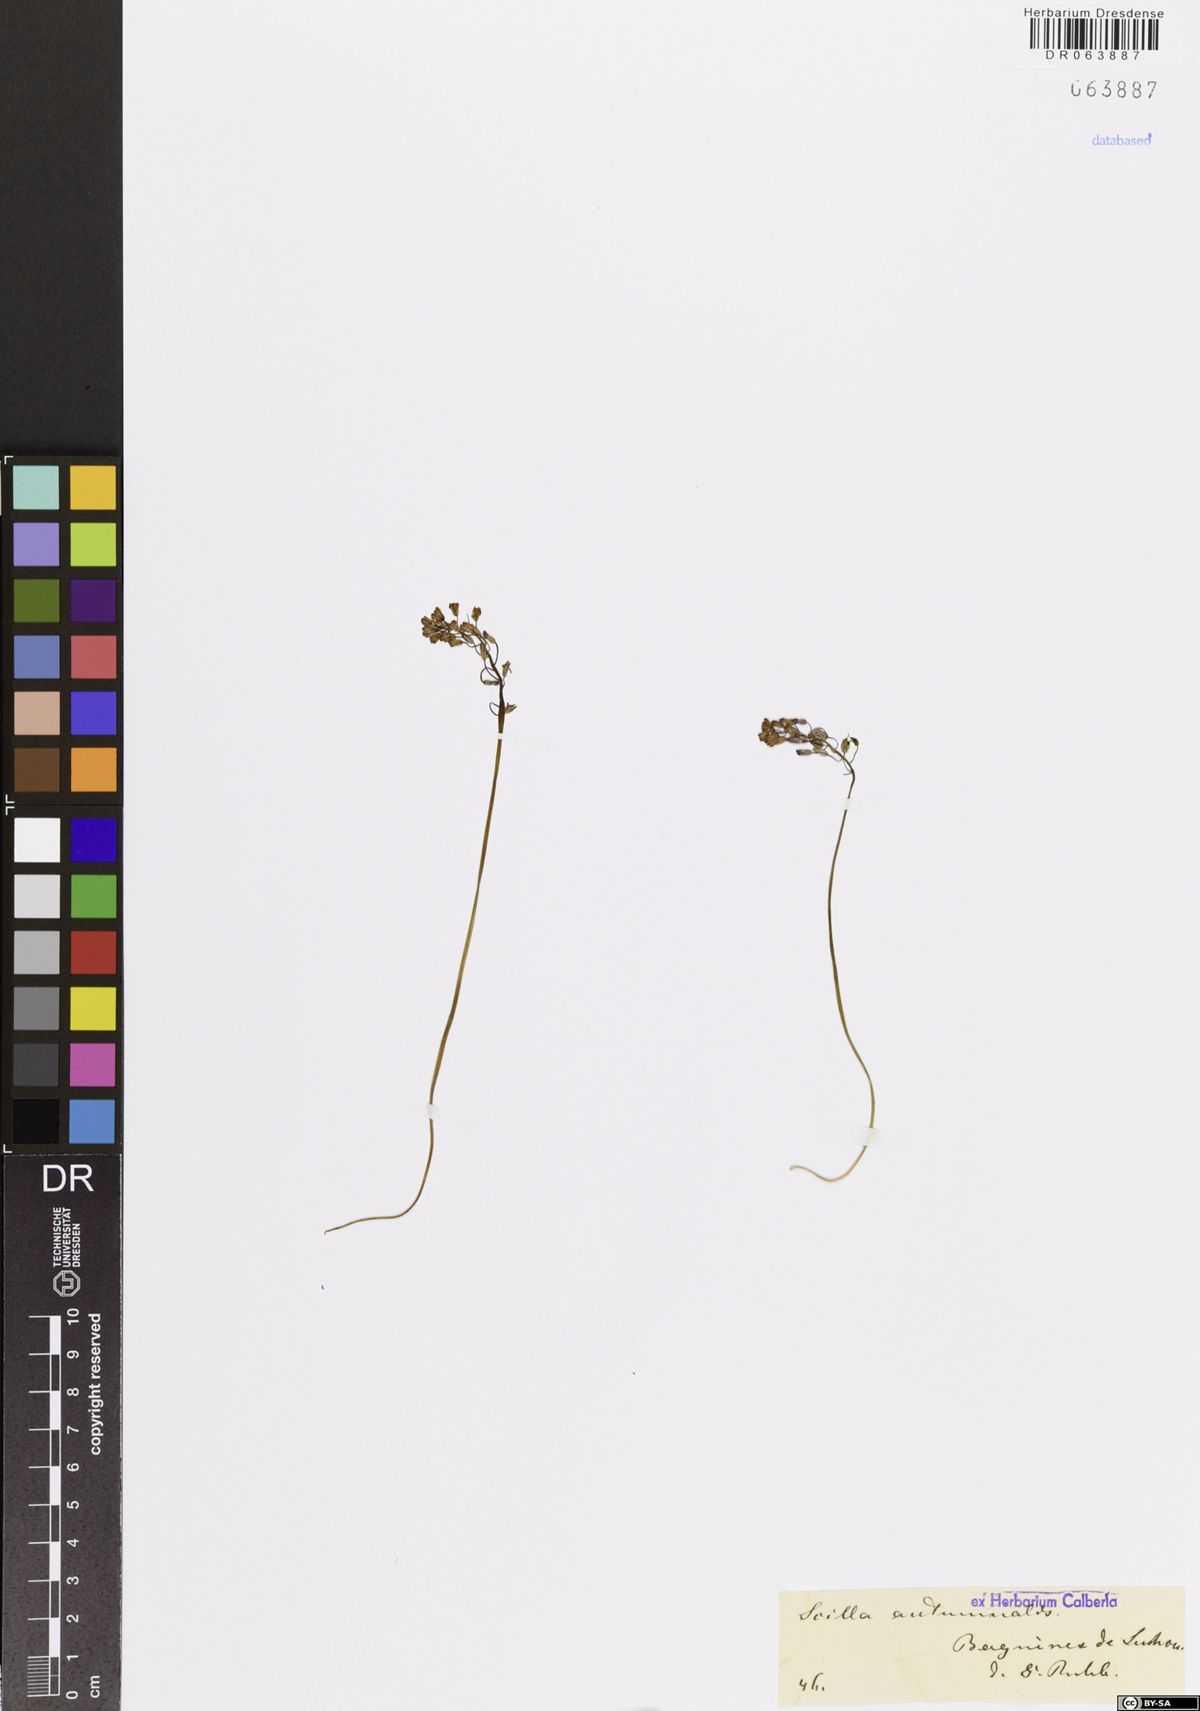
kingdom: Plantae
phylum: Tracheophyta
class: Liliopsida
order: Asparagales
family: Asparagaceae
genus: Prospero
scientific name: Prospero autumnale
